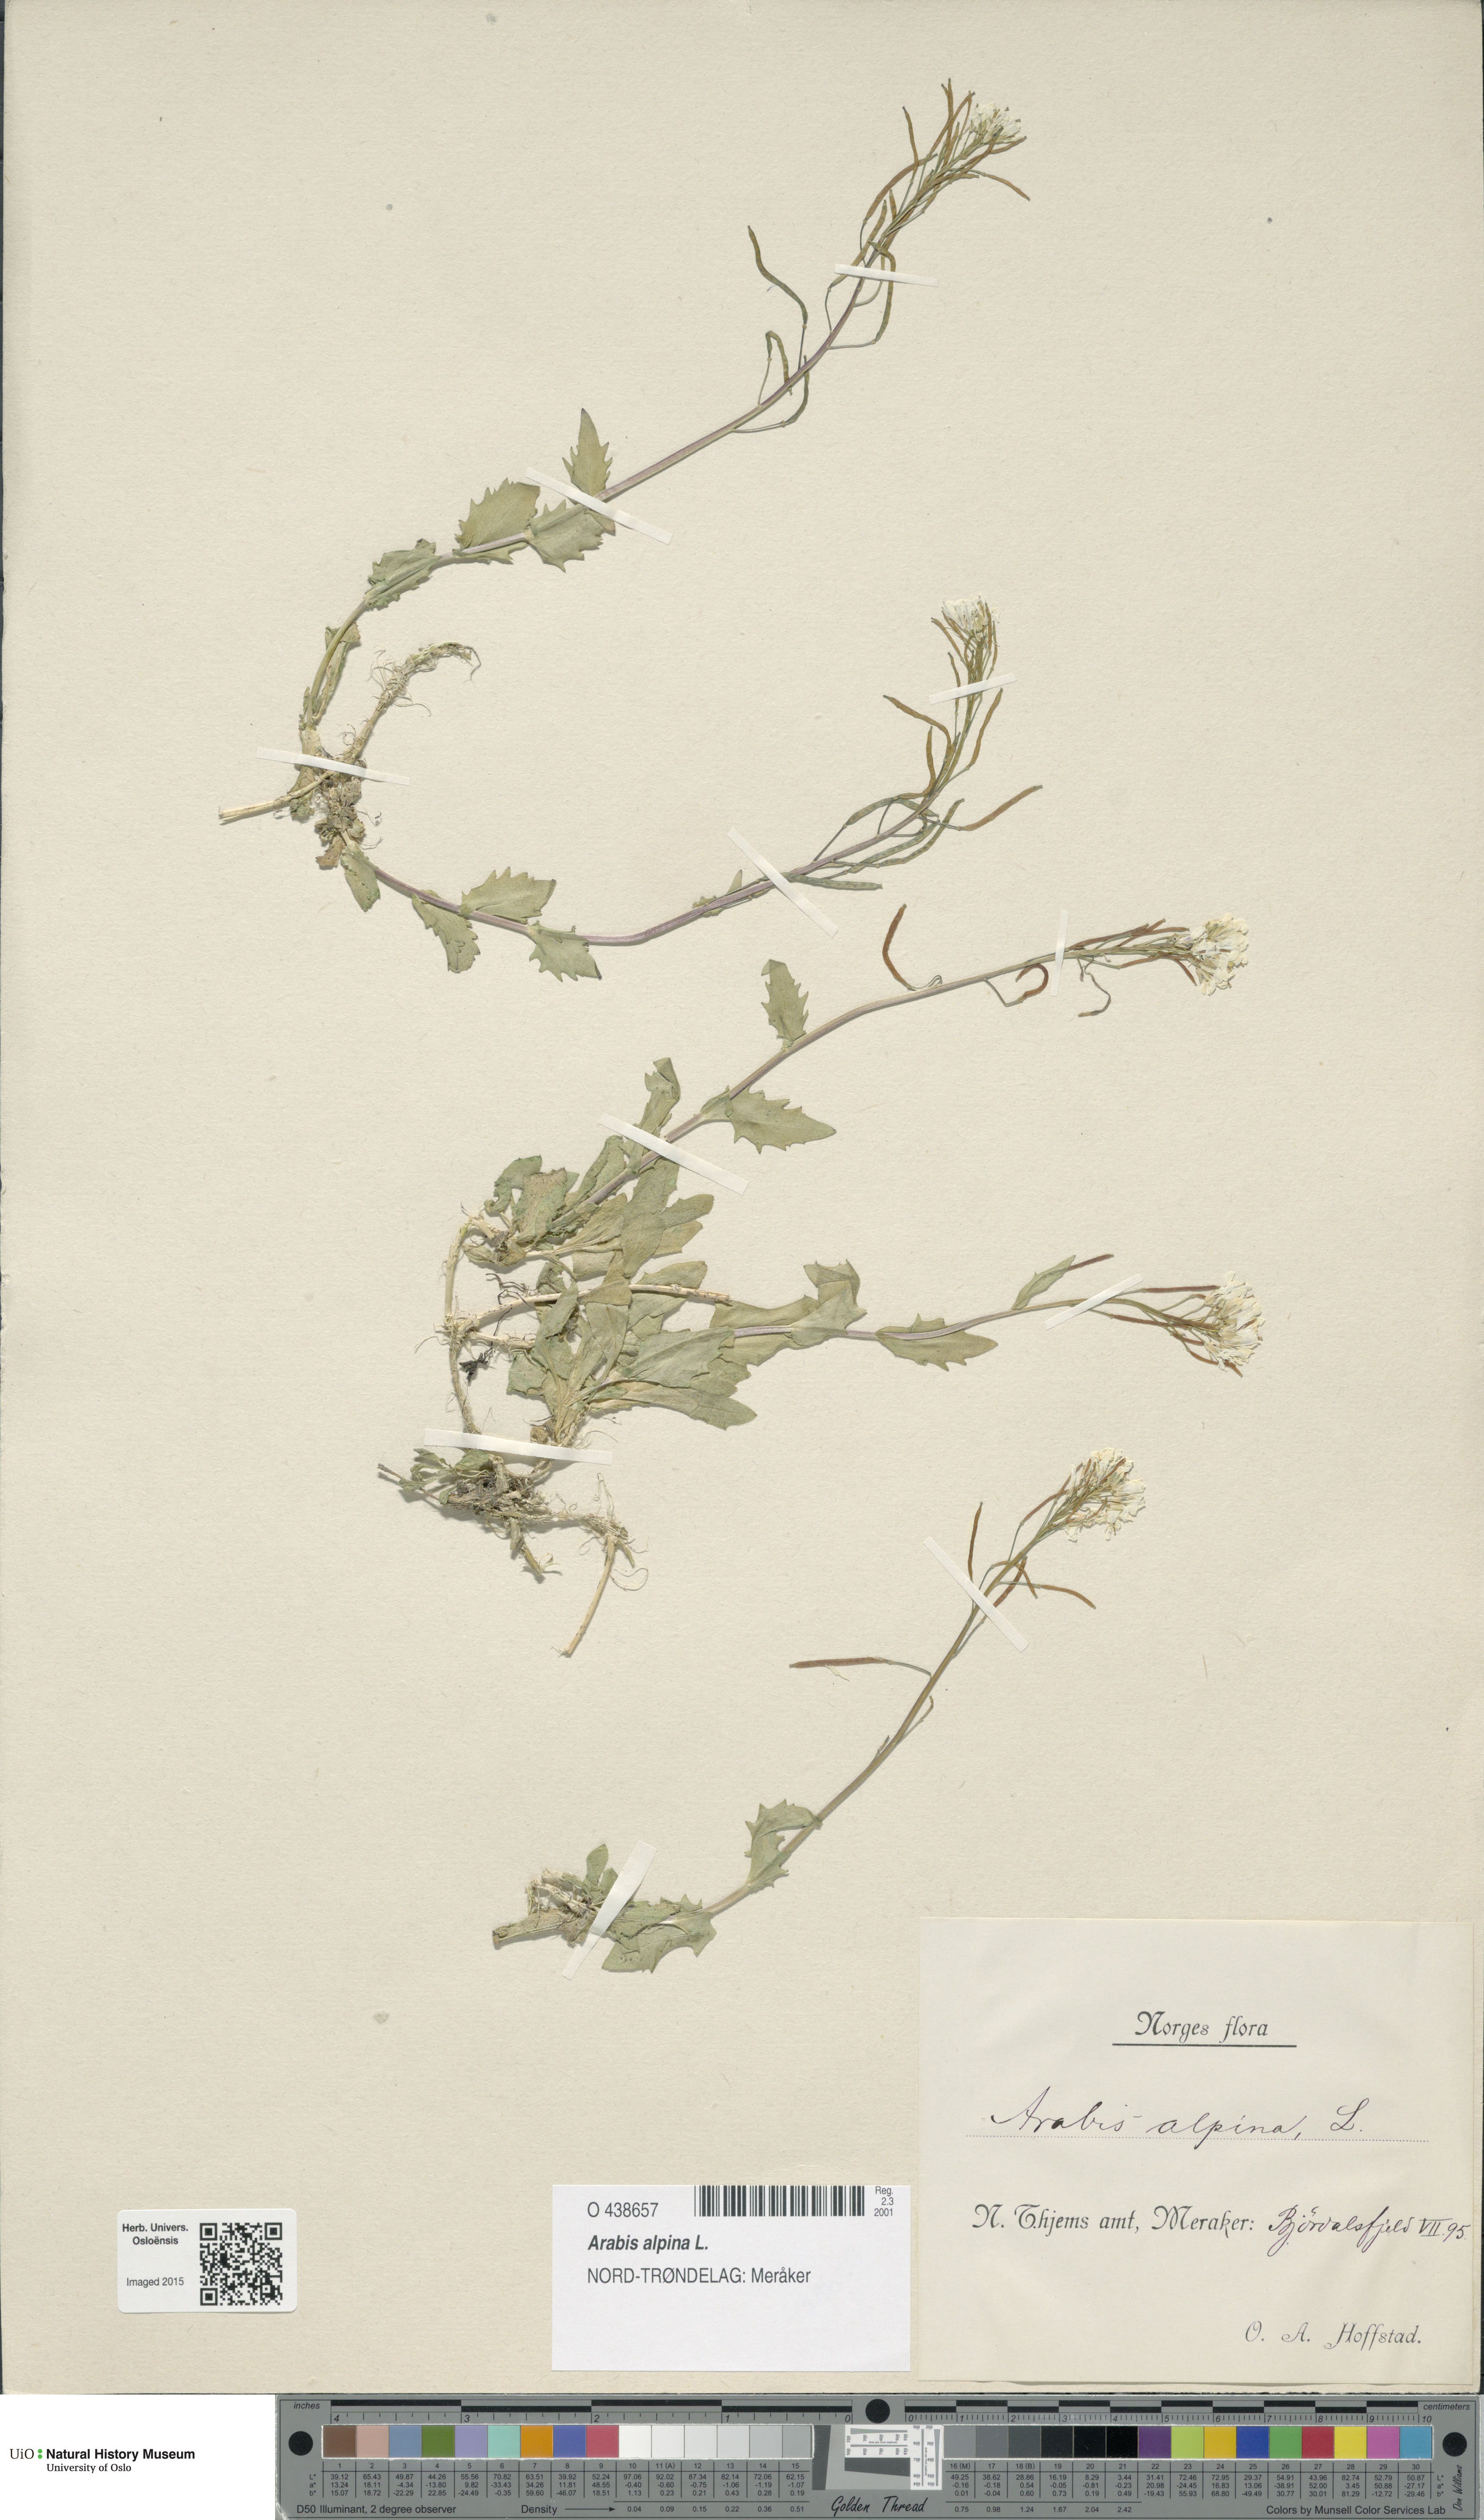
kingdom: Plantae
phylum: Tracheophyta
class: Magnoliopsida
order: Brassicales
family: Brassicaceae
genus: Arabis
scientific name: Arabis alpina
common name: Alpine rock-cress
